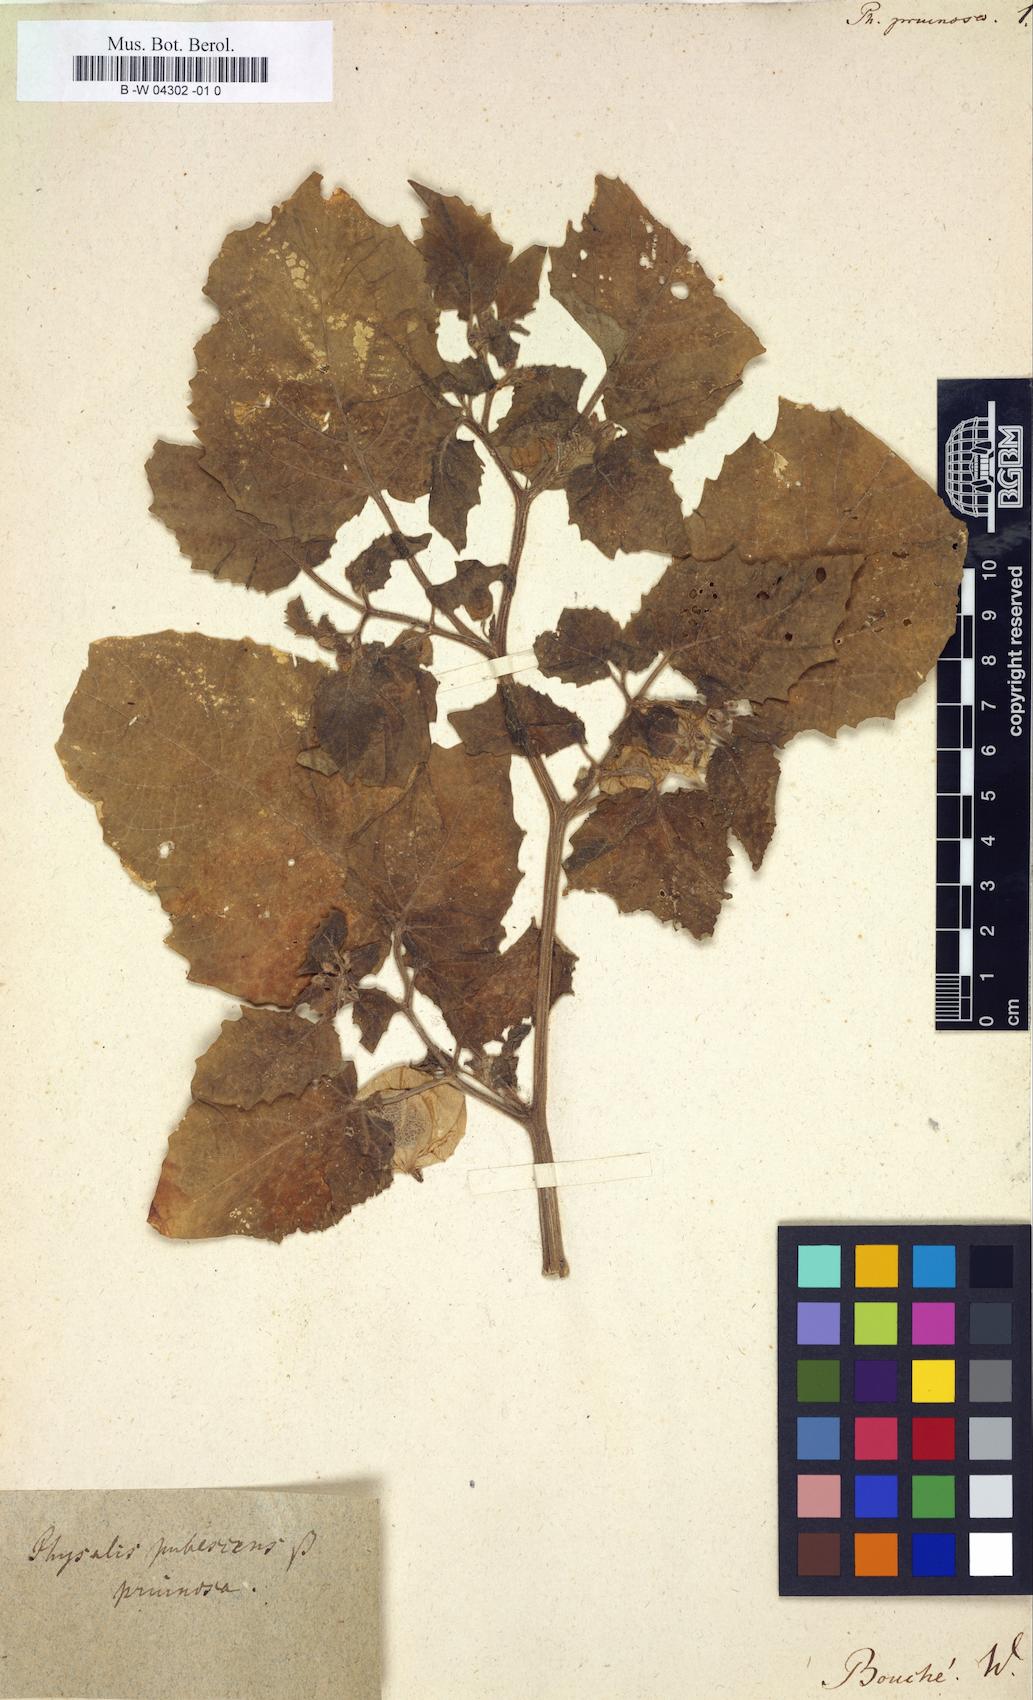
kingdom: Plantae
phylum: Tracheophyta
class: Magnoliopsida
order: Solanales
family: Solanaceae
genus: Physalis
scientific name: Physalis pruinosa
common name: Strawberry tomato
